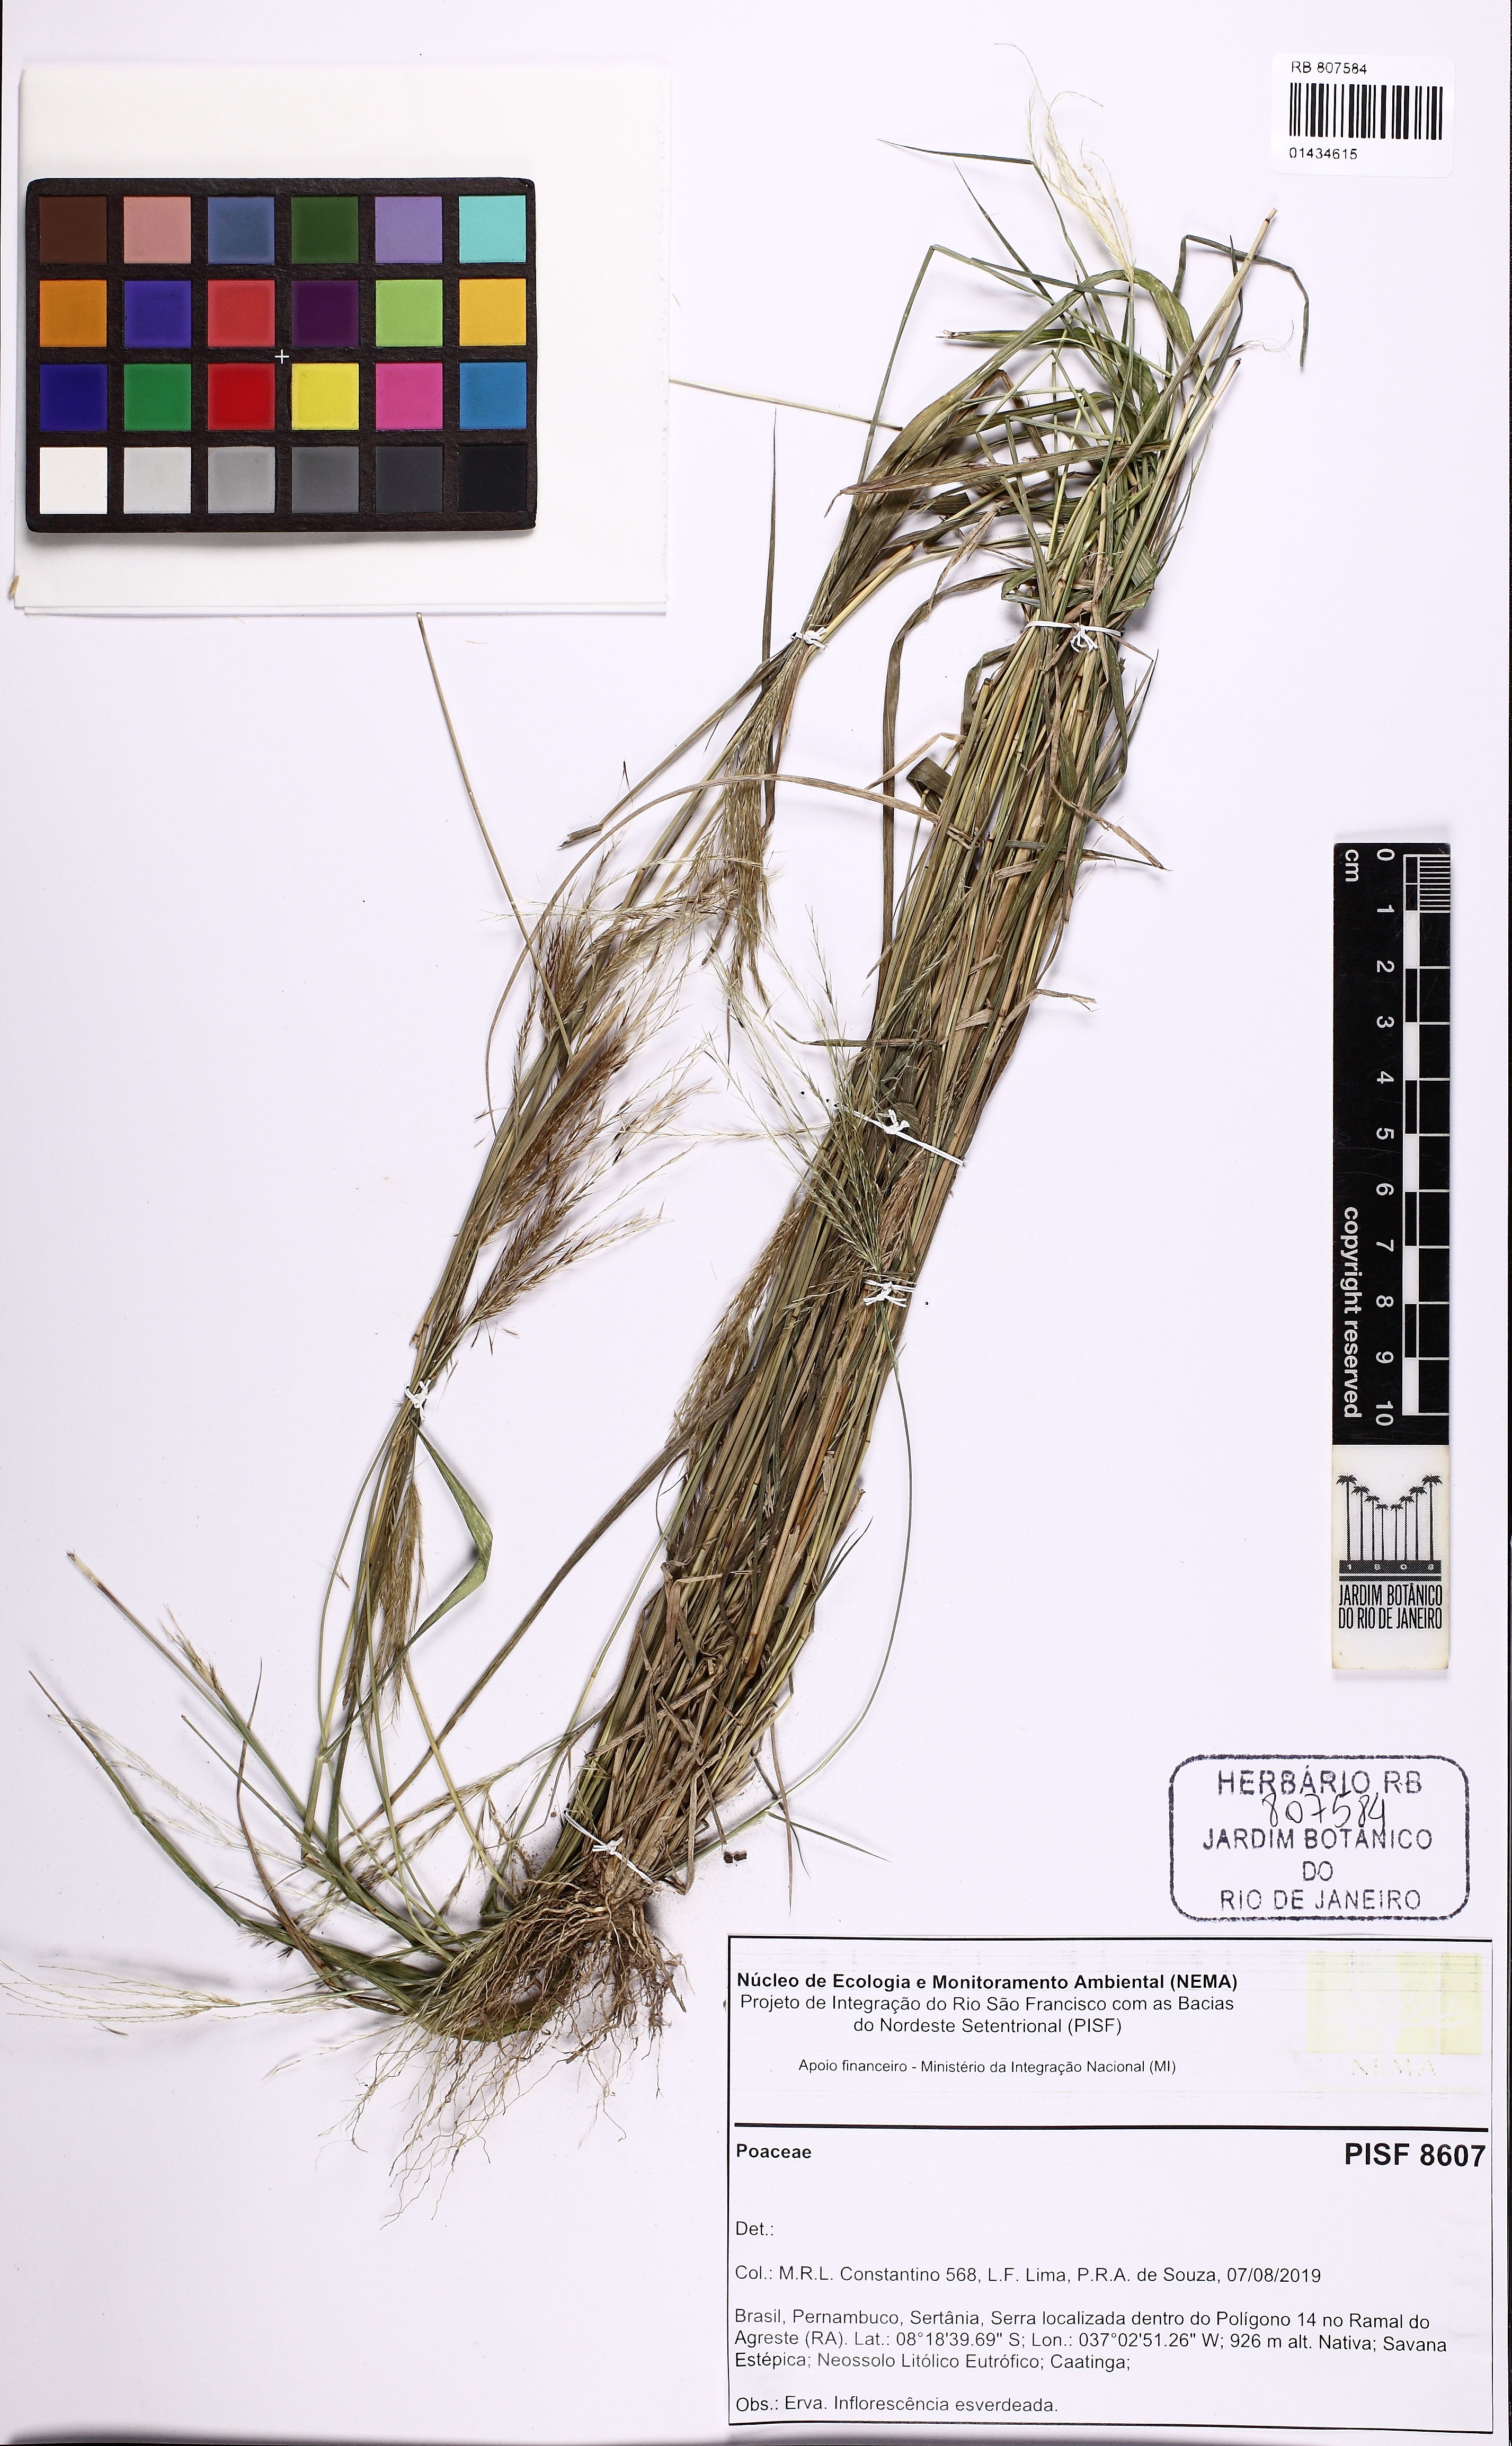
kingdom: Plantae
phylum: Tracheophyta
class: Liliopsida
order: Poales
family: Poaceae
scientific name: Poaceae
